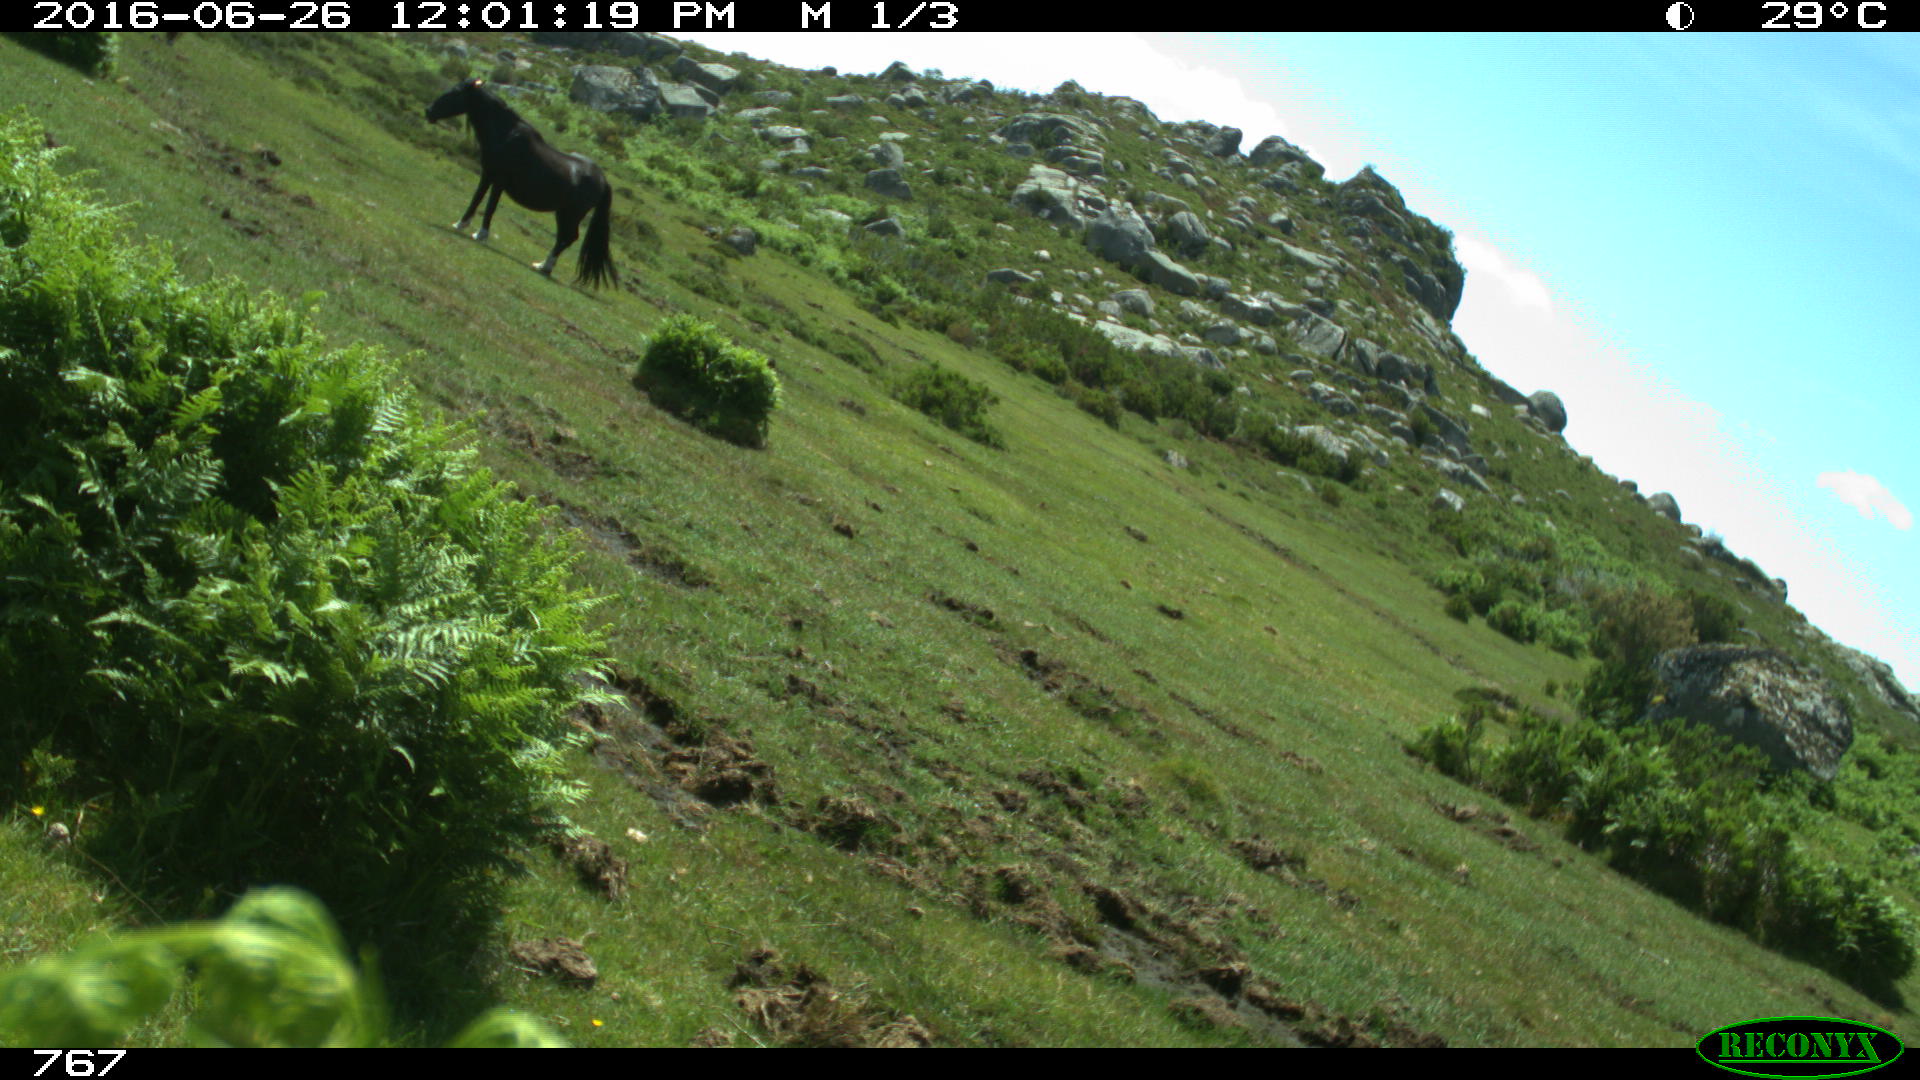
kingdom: Animalia
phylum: Chordata
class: Mammalia
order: Perissodactyla
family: Equidae
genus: Equus
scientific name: Equus caballus
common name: Horse
